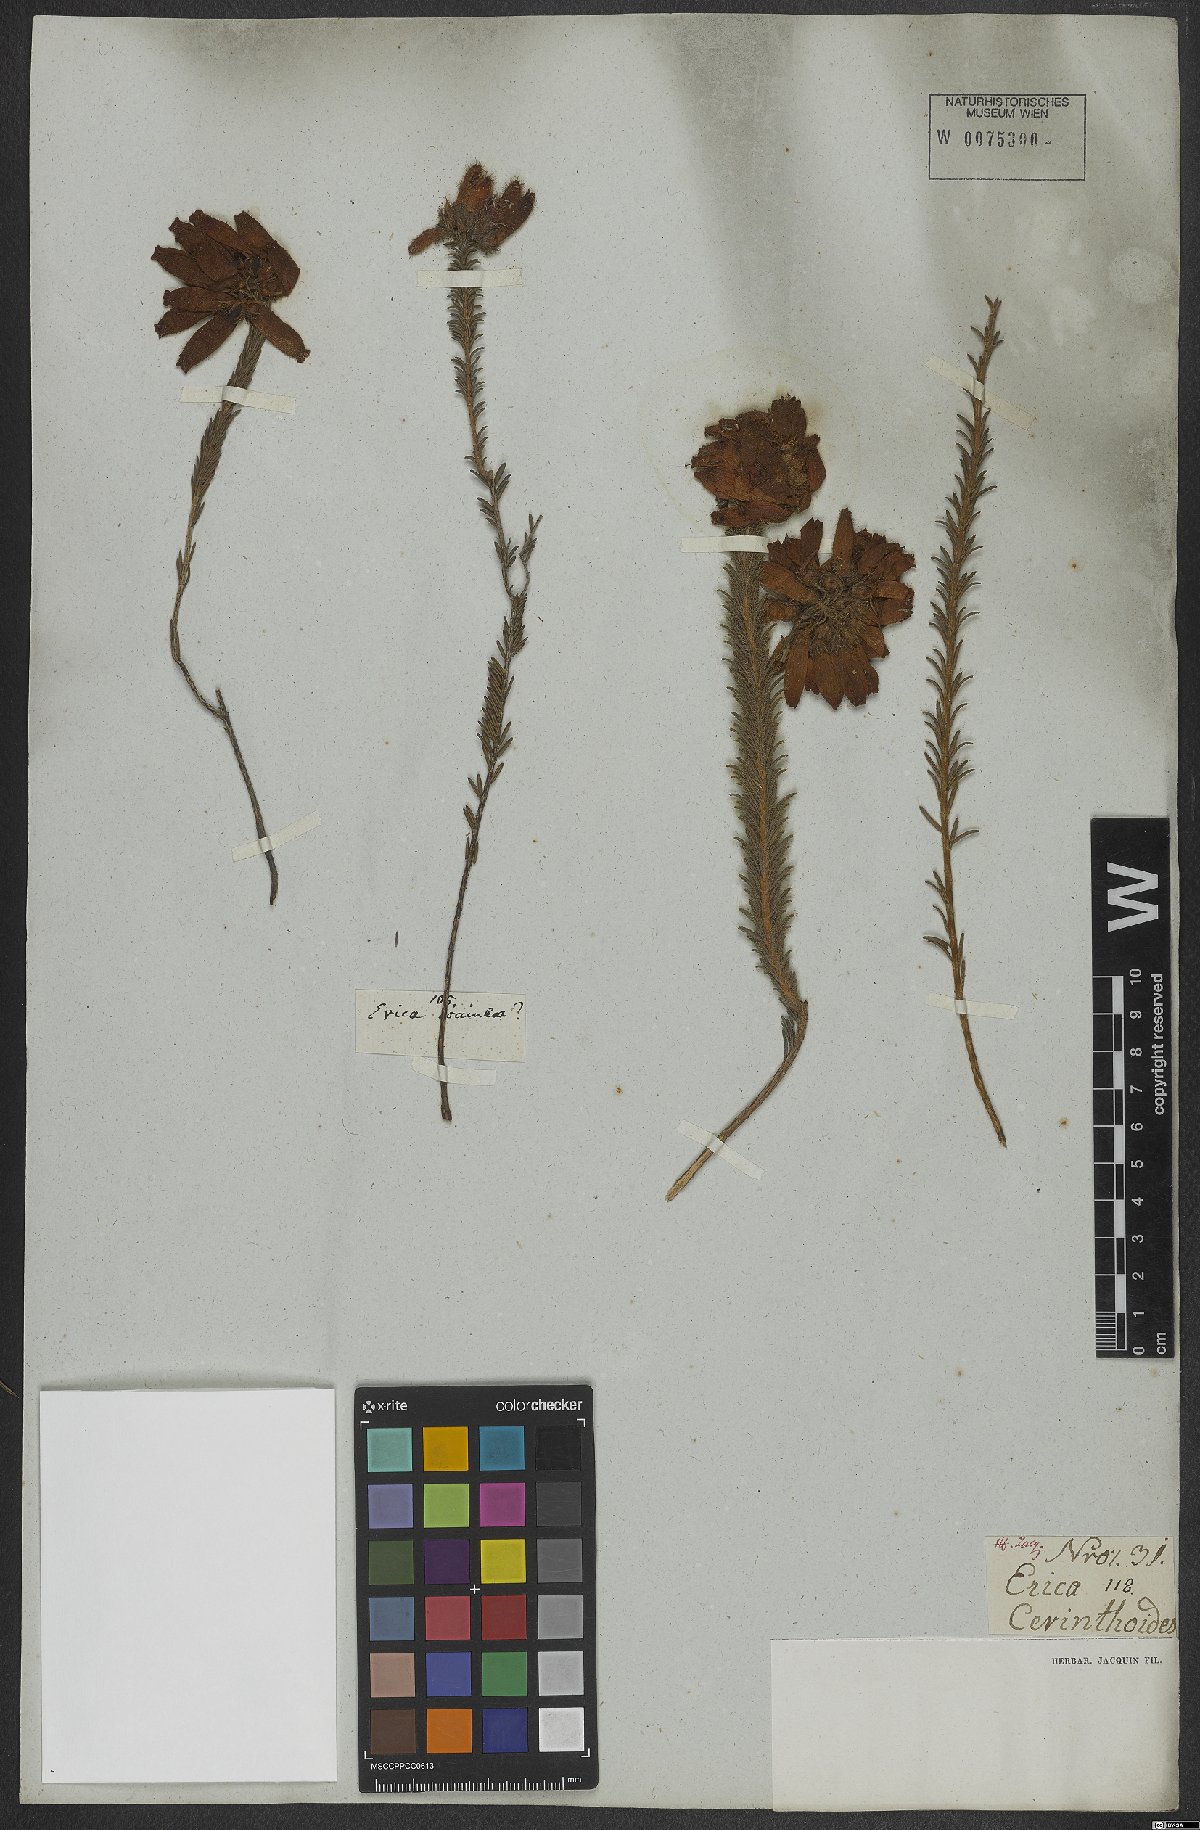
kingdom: Plantae
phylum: Tracheophyta
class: Magnoliopsida
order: Ericales
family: Ericaceae
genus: Erica
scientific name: Erica cerinthoides
